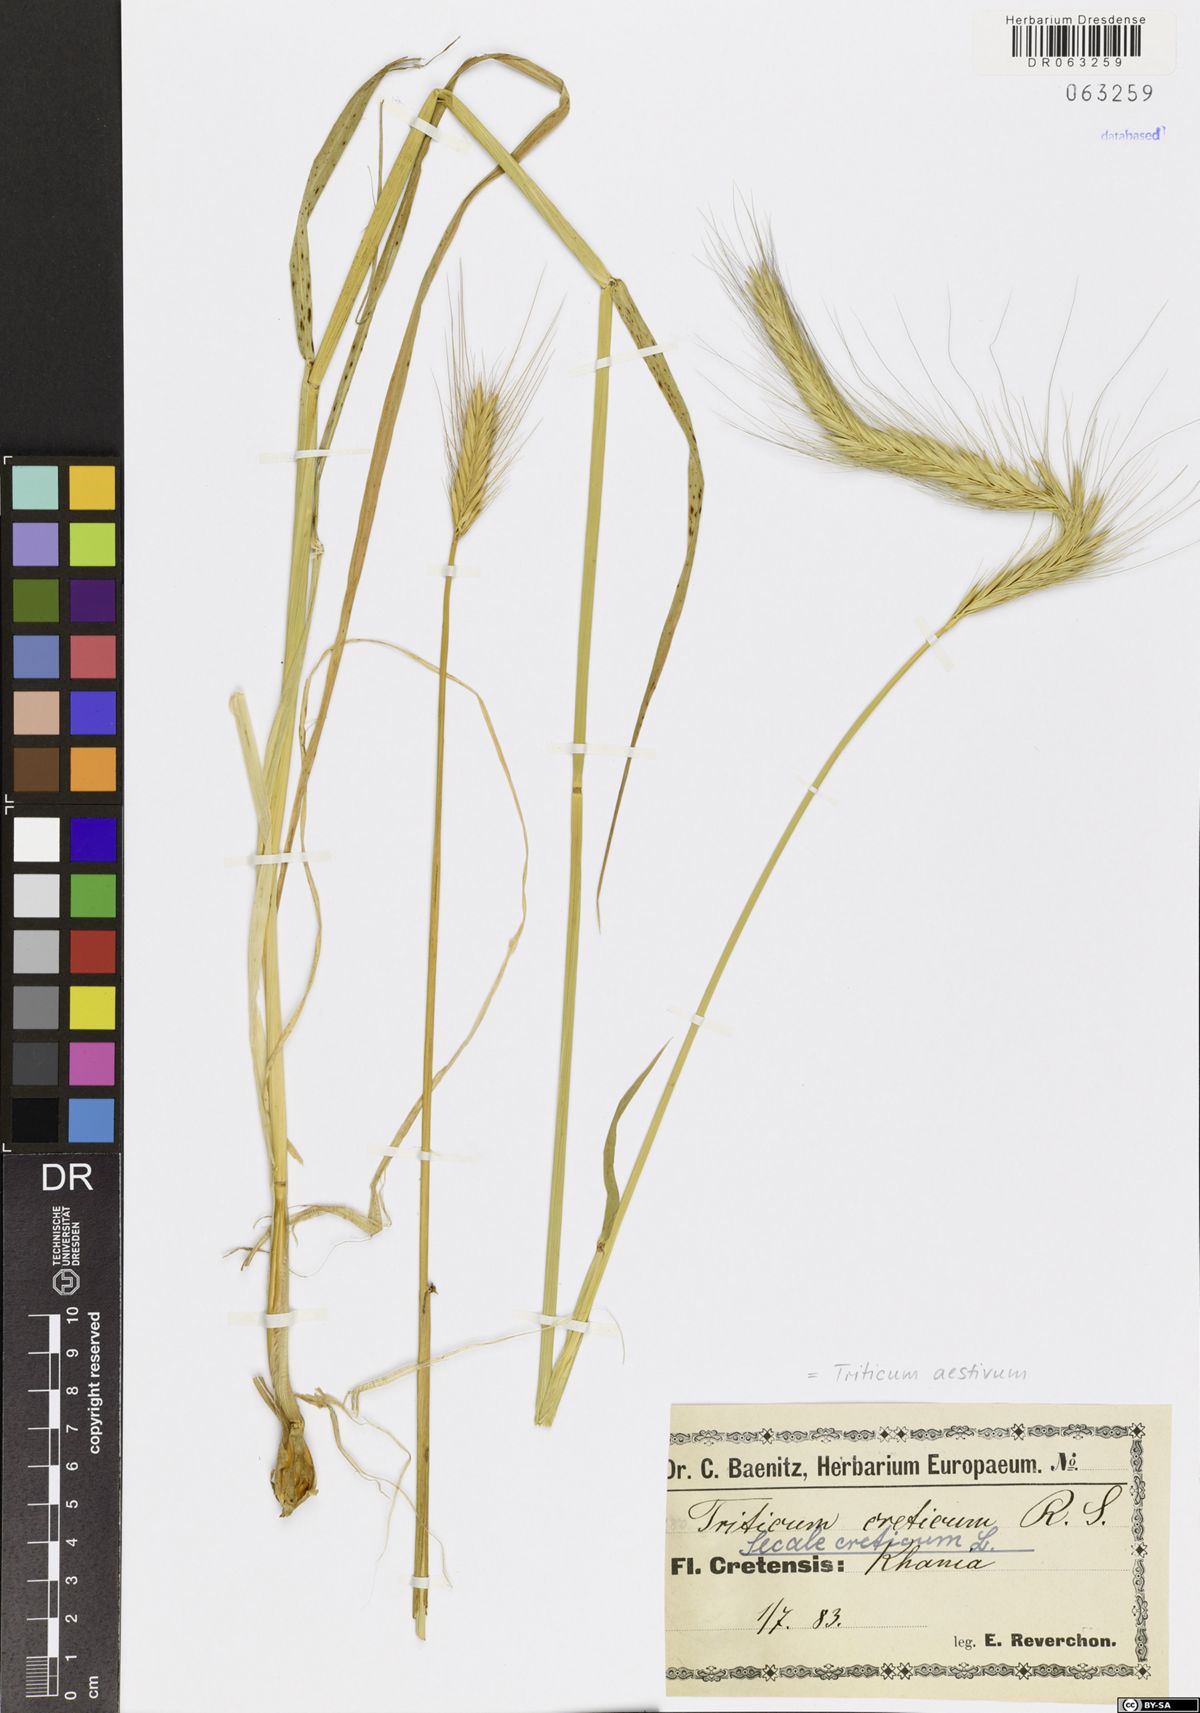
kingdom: Plantae
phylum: Tracheophyta
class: Liliopsida
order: Poales
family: Poaceae
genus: Triticum
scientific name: Triticum aestivum
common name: Common wheat
